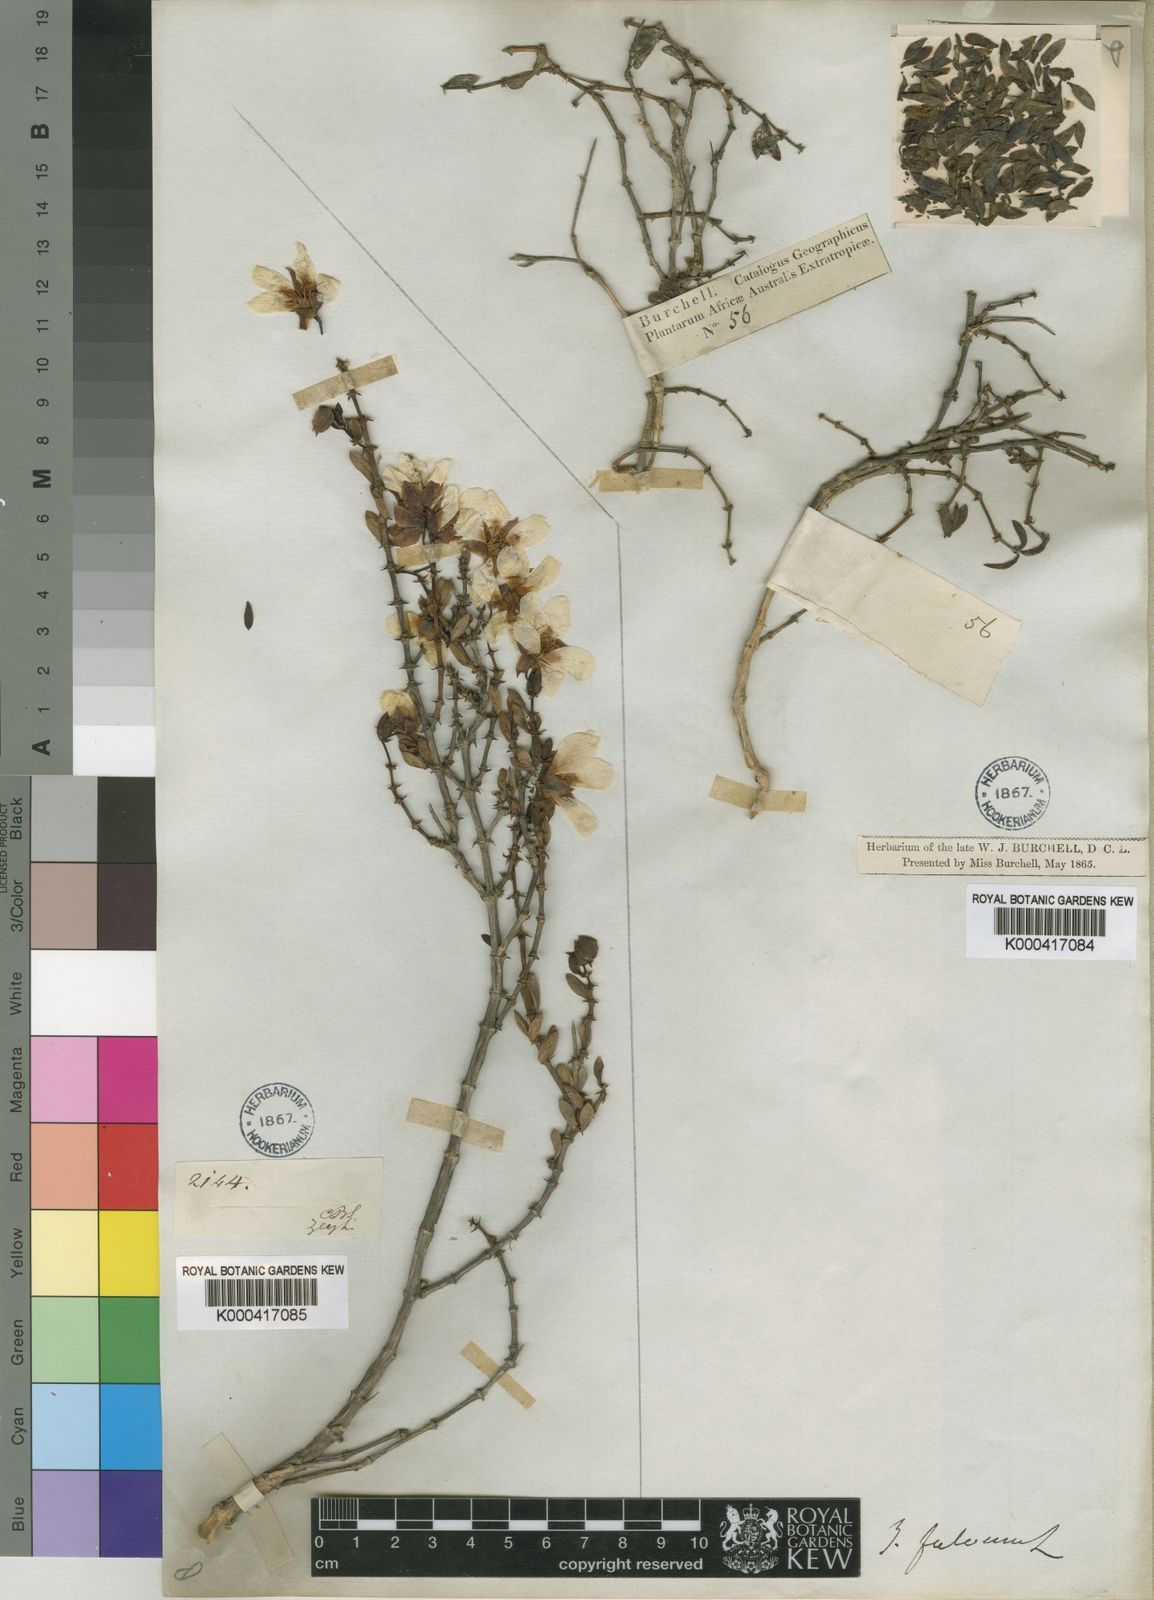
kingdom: Plantae
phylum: Tracheophyta
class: Magnoliopsida
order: Zygophyllales
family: Zygophyllaceae
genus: Roepera
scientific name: Roepera fulva
